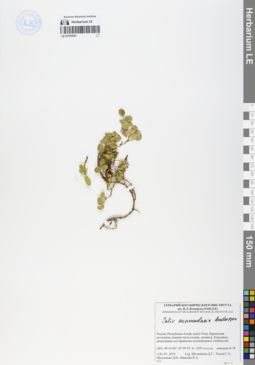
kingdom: Plantae
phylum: Tracheophyta
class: Magnoliopsida
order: Malpighiales
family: Salicaceae
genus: Salix
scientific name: Salix nummularia
